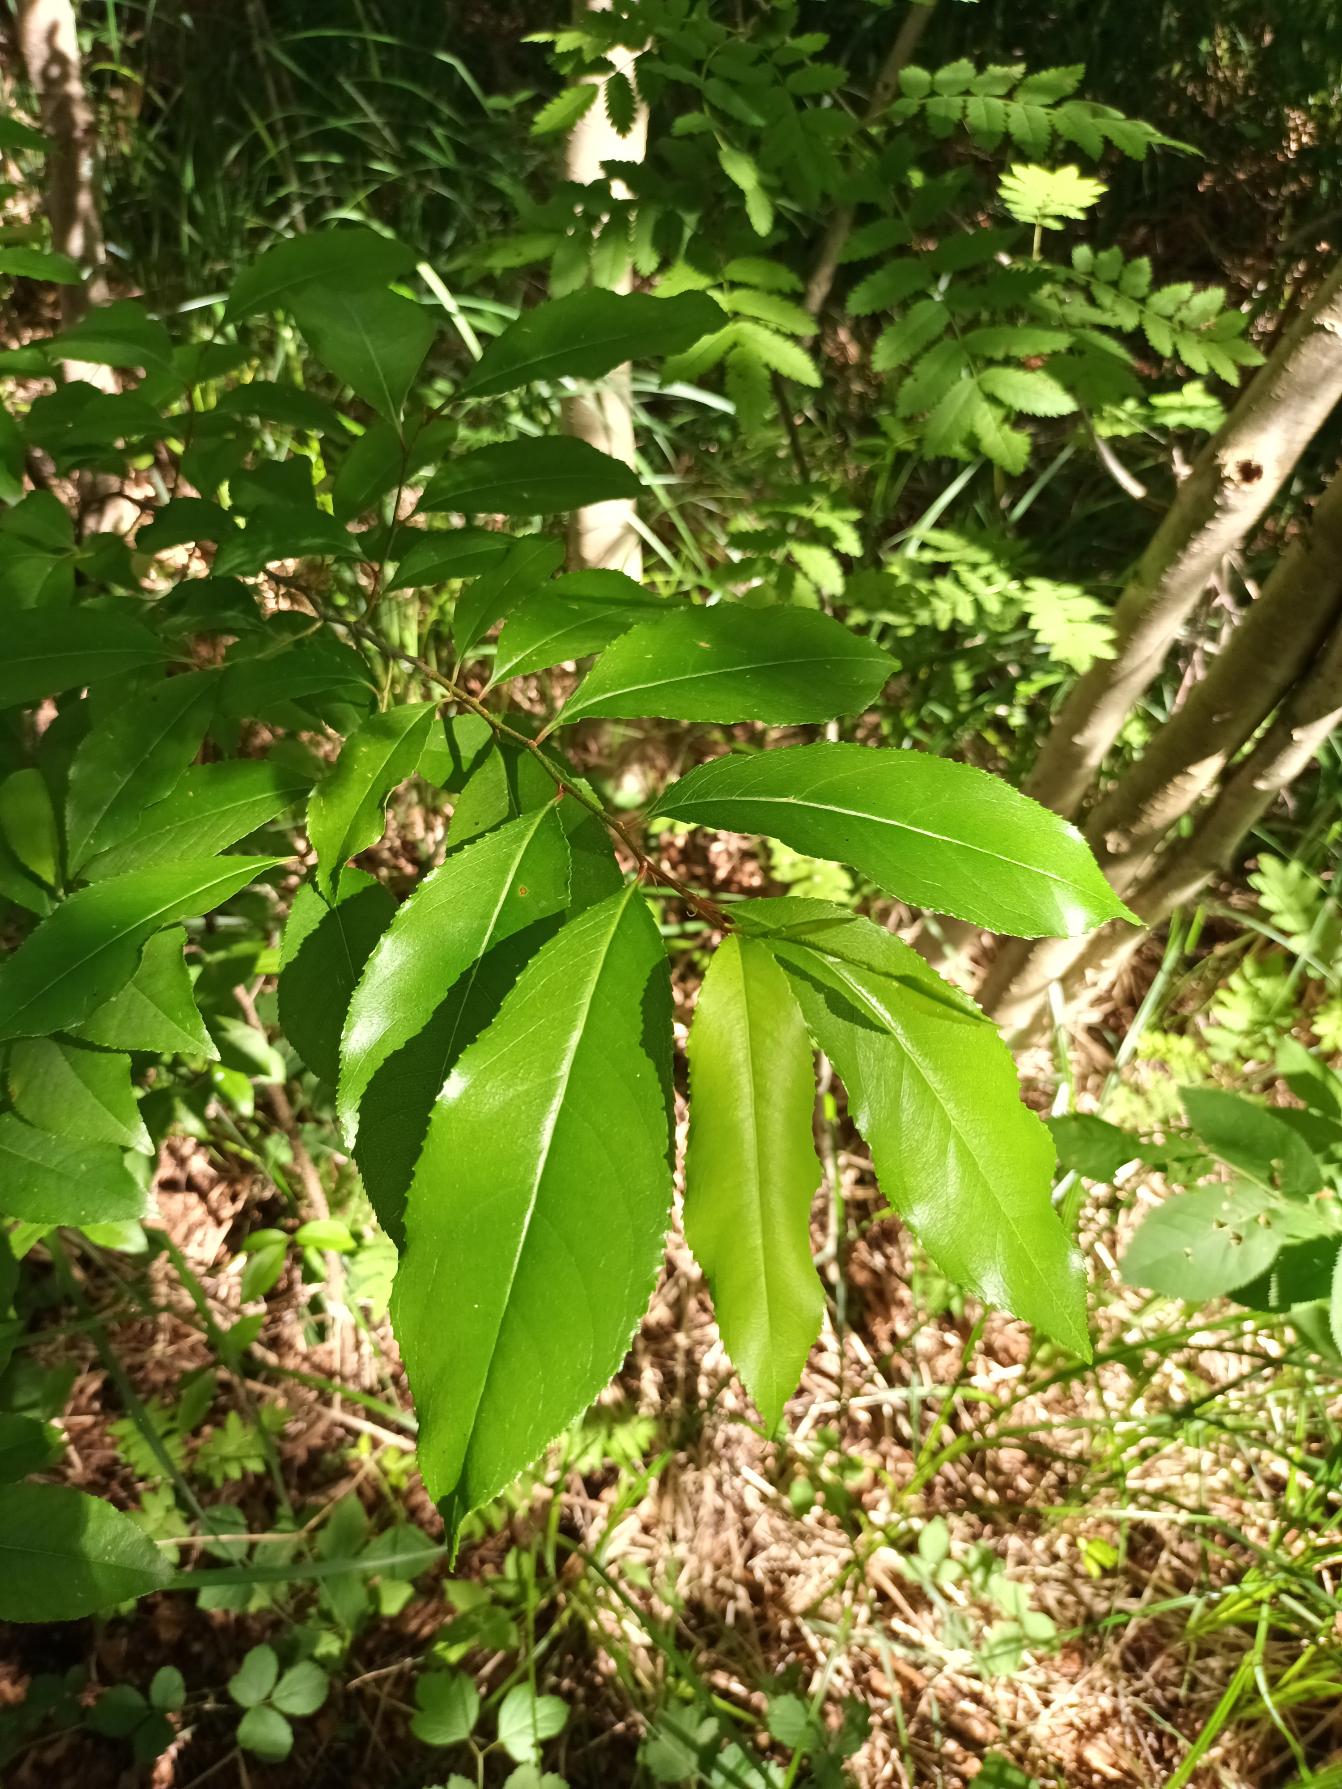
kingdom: Plantae
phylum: Tracheophyta
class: Magnoliopsida
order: Rosales
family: Rosaceae
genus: Prunus
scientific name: Prunus serotina
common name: Glansbladet hæg
